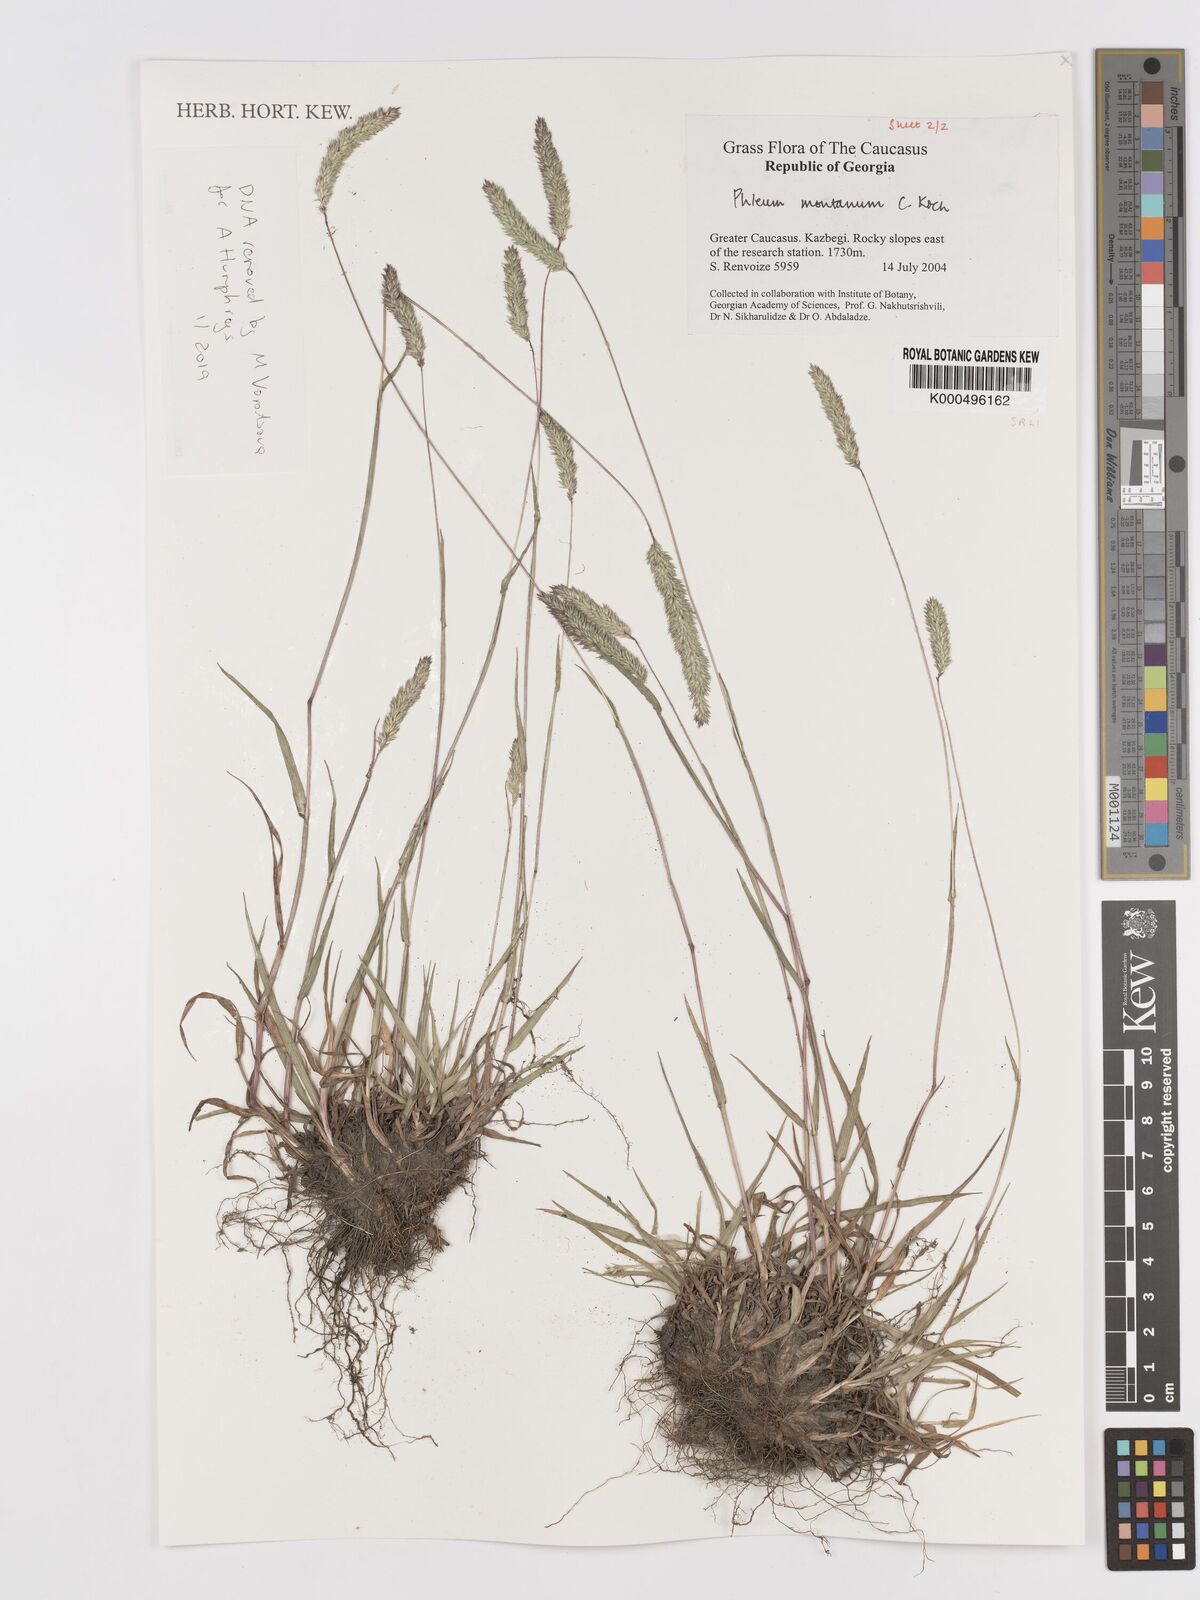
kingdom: Plantae
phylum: Tracheophyta
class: Liliopsida
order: Poales
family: Poaceae
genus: Phleum
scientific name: Phleum montanum
